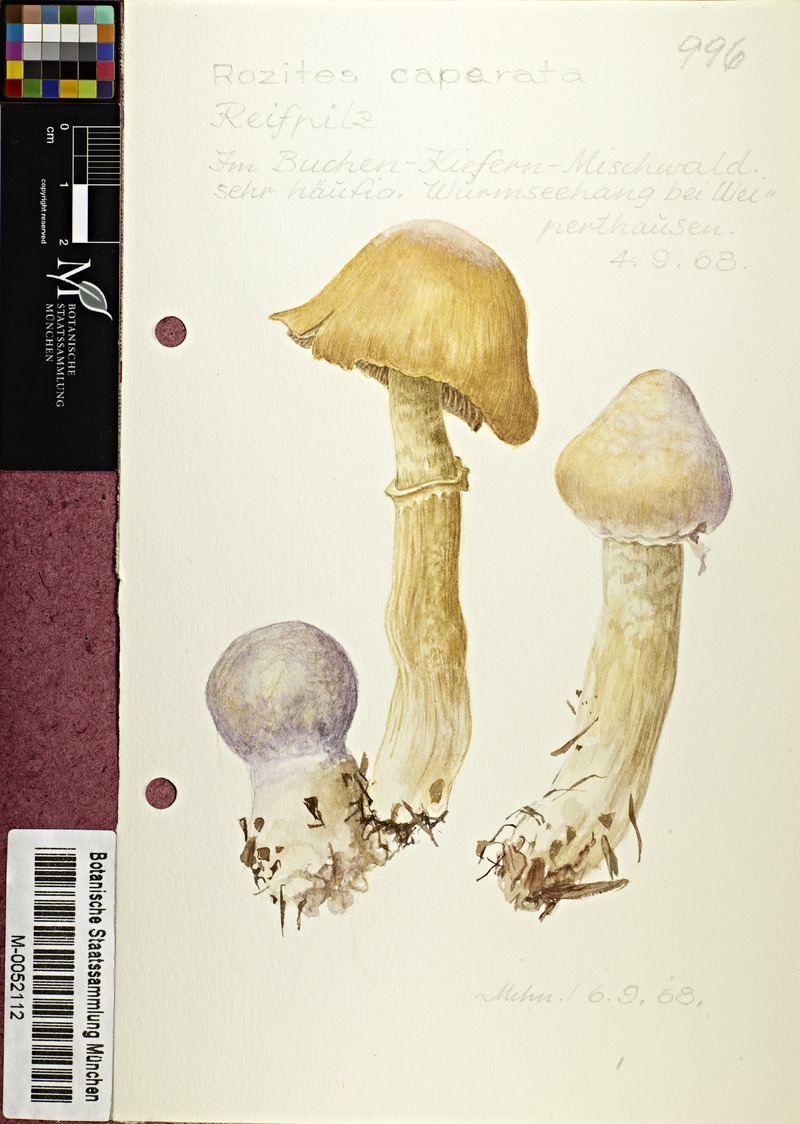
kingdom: Fungi
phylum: Basidiomycota
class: Agaricomycetes
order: Agaricales
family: Cortinariaceae
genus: Cortinarius
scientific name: Cortinarius caperatus
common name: The gypsy
